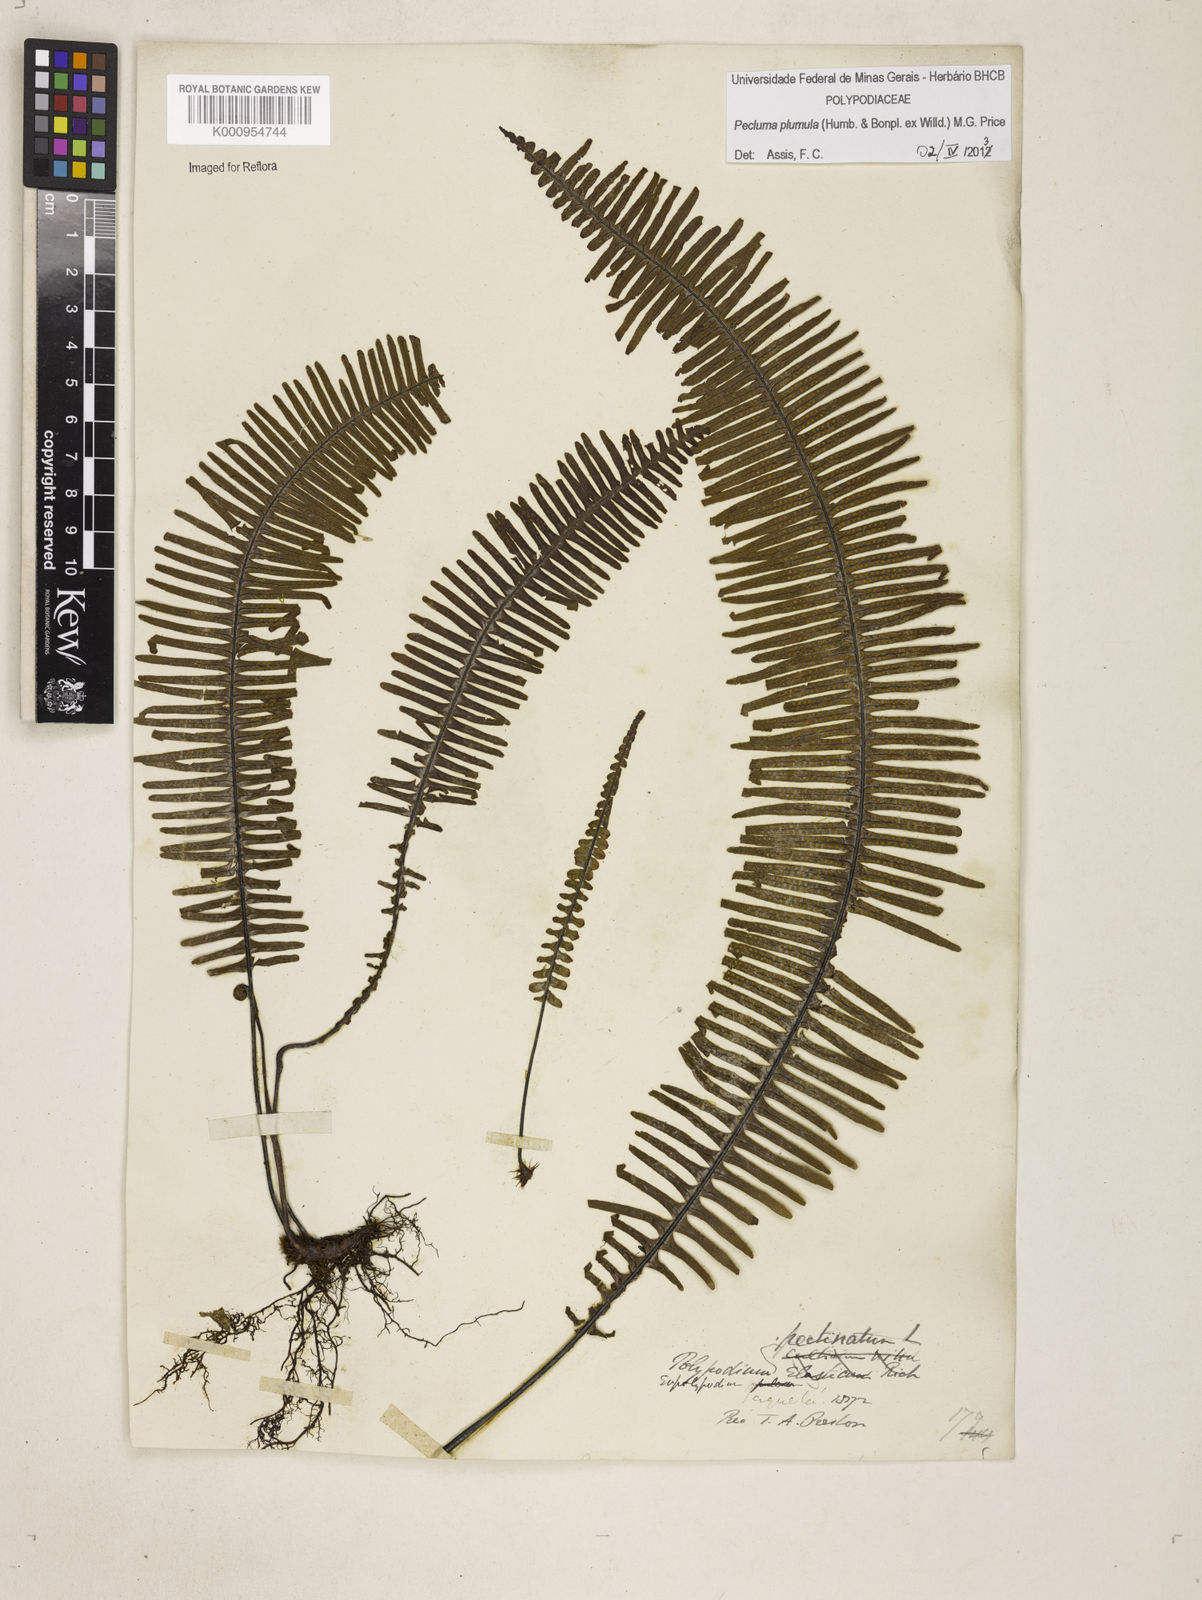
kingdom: Plantae
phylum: Tracheophyta
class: Polypodiopsida
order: Polypodiales
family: Polypodiaceae
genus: Pecluma
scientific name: Pecluma plumula
